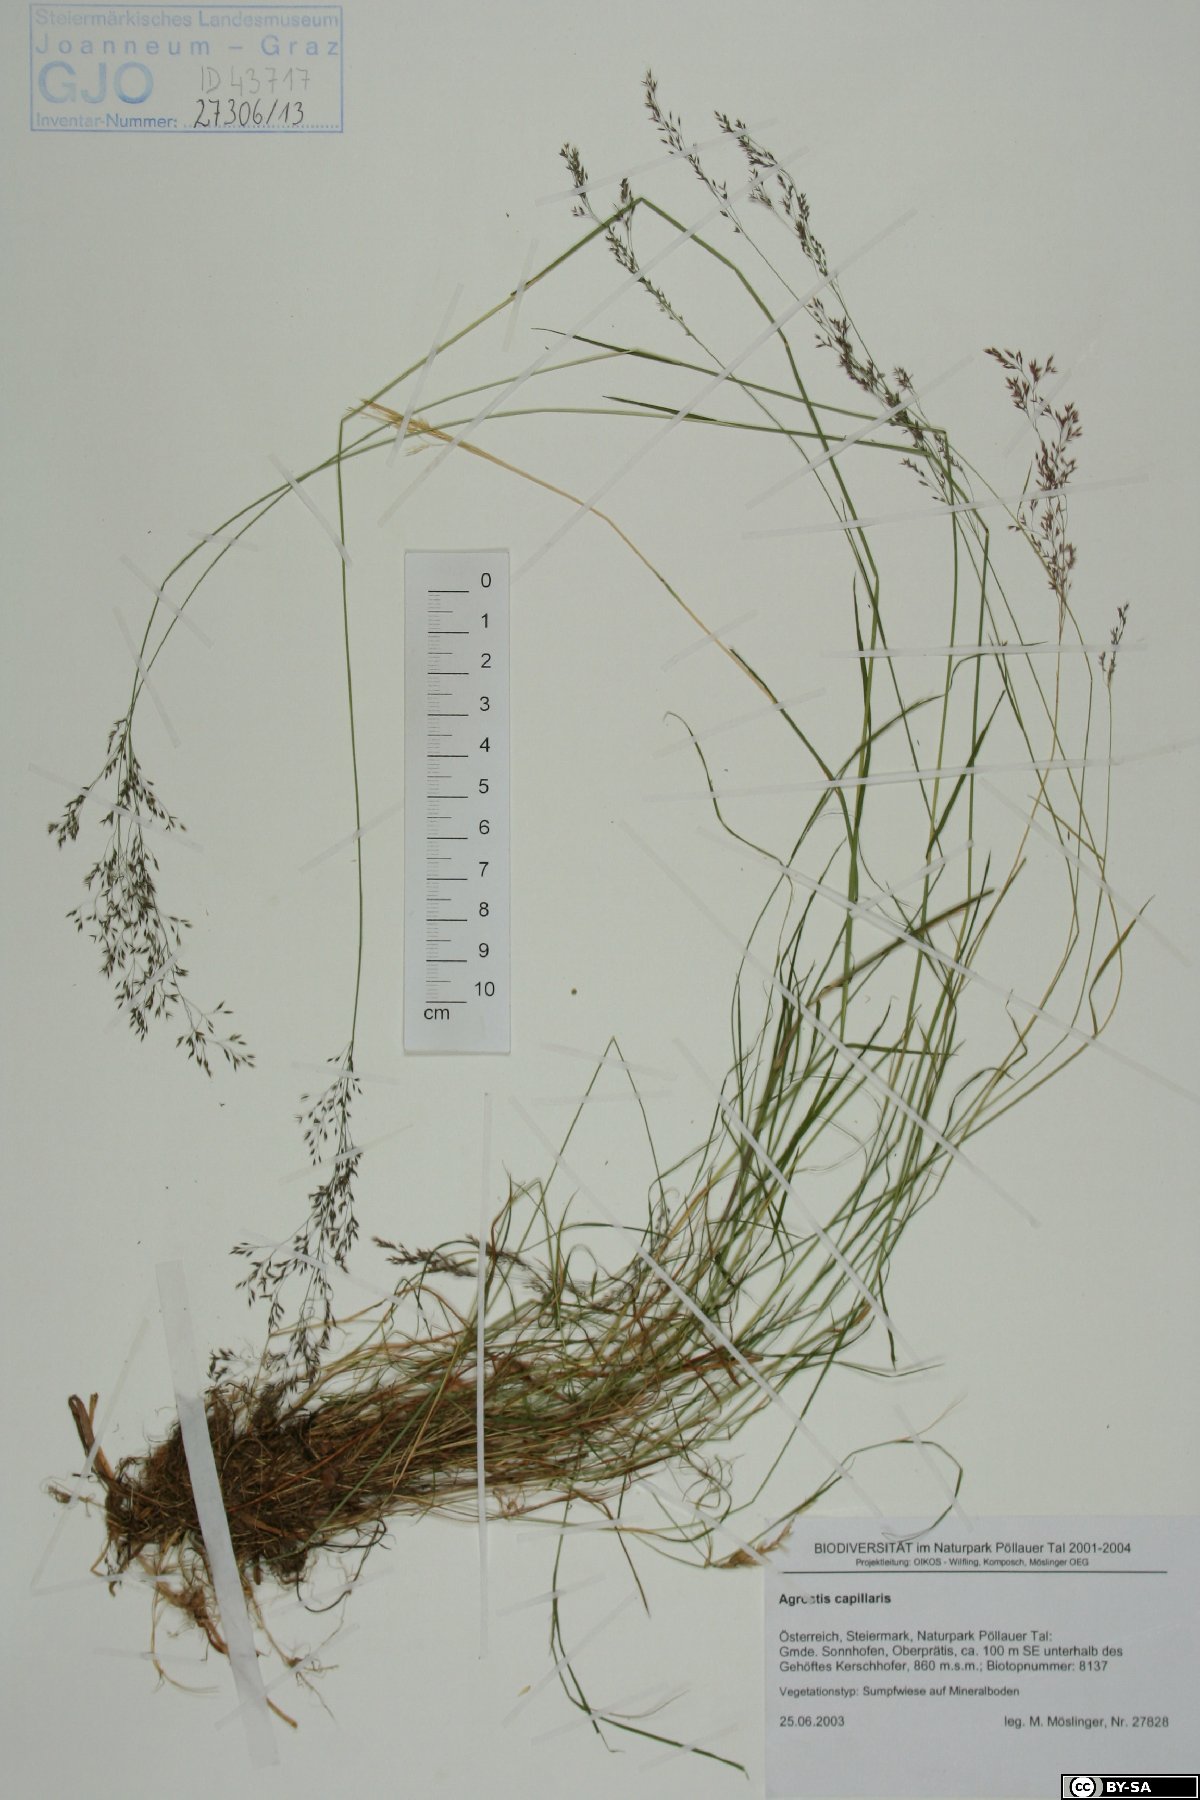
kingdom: Plantae
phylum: Tracheophyta
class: Liliopsida
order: Poales
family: Poaceae
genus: Agrostis
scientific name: Agrostis capillaris
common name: Colonial bentgrass
